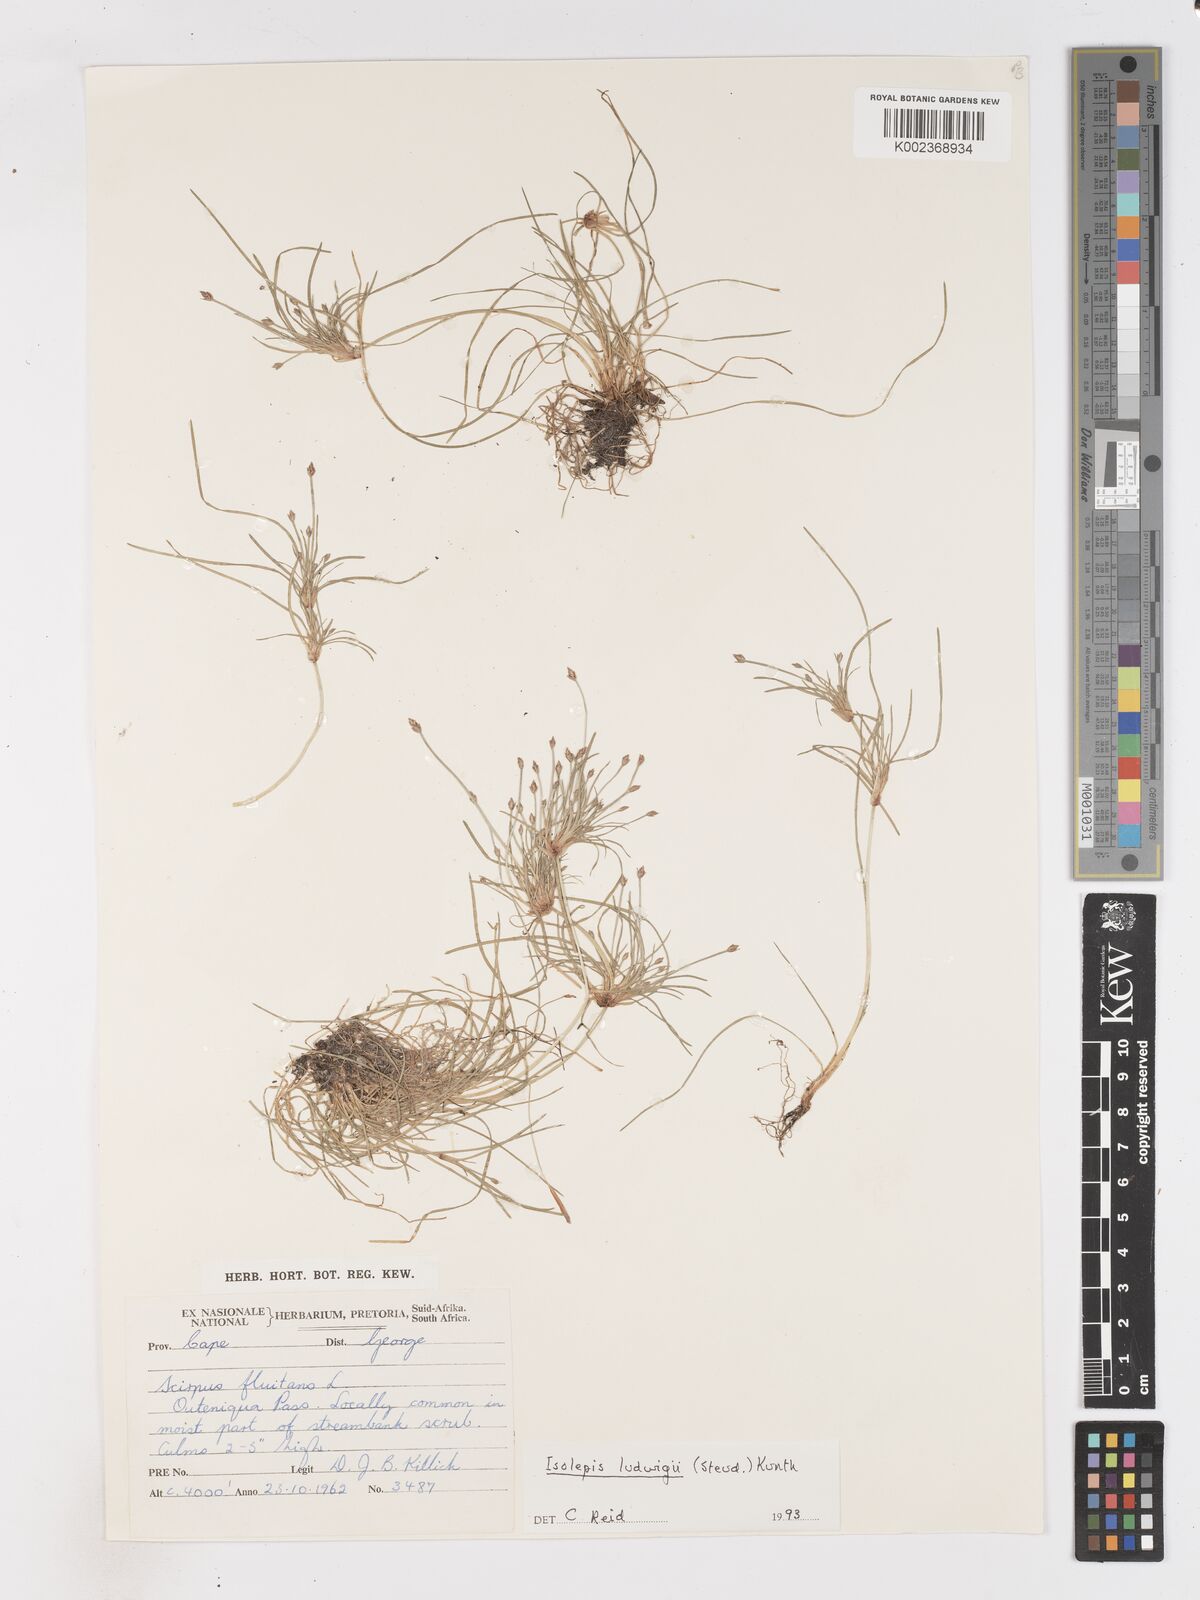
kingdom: Plantae
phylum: Tracheophyta
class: Liliopsida
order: Poales
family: Cyperaceae
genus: Isolepis
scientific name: Isolepis ludwigii
